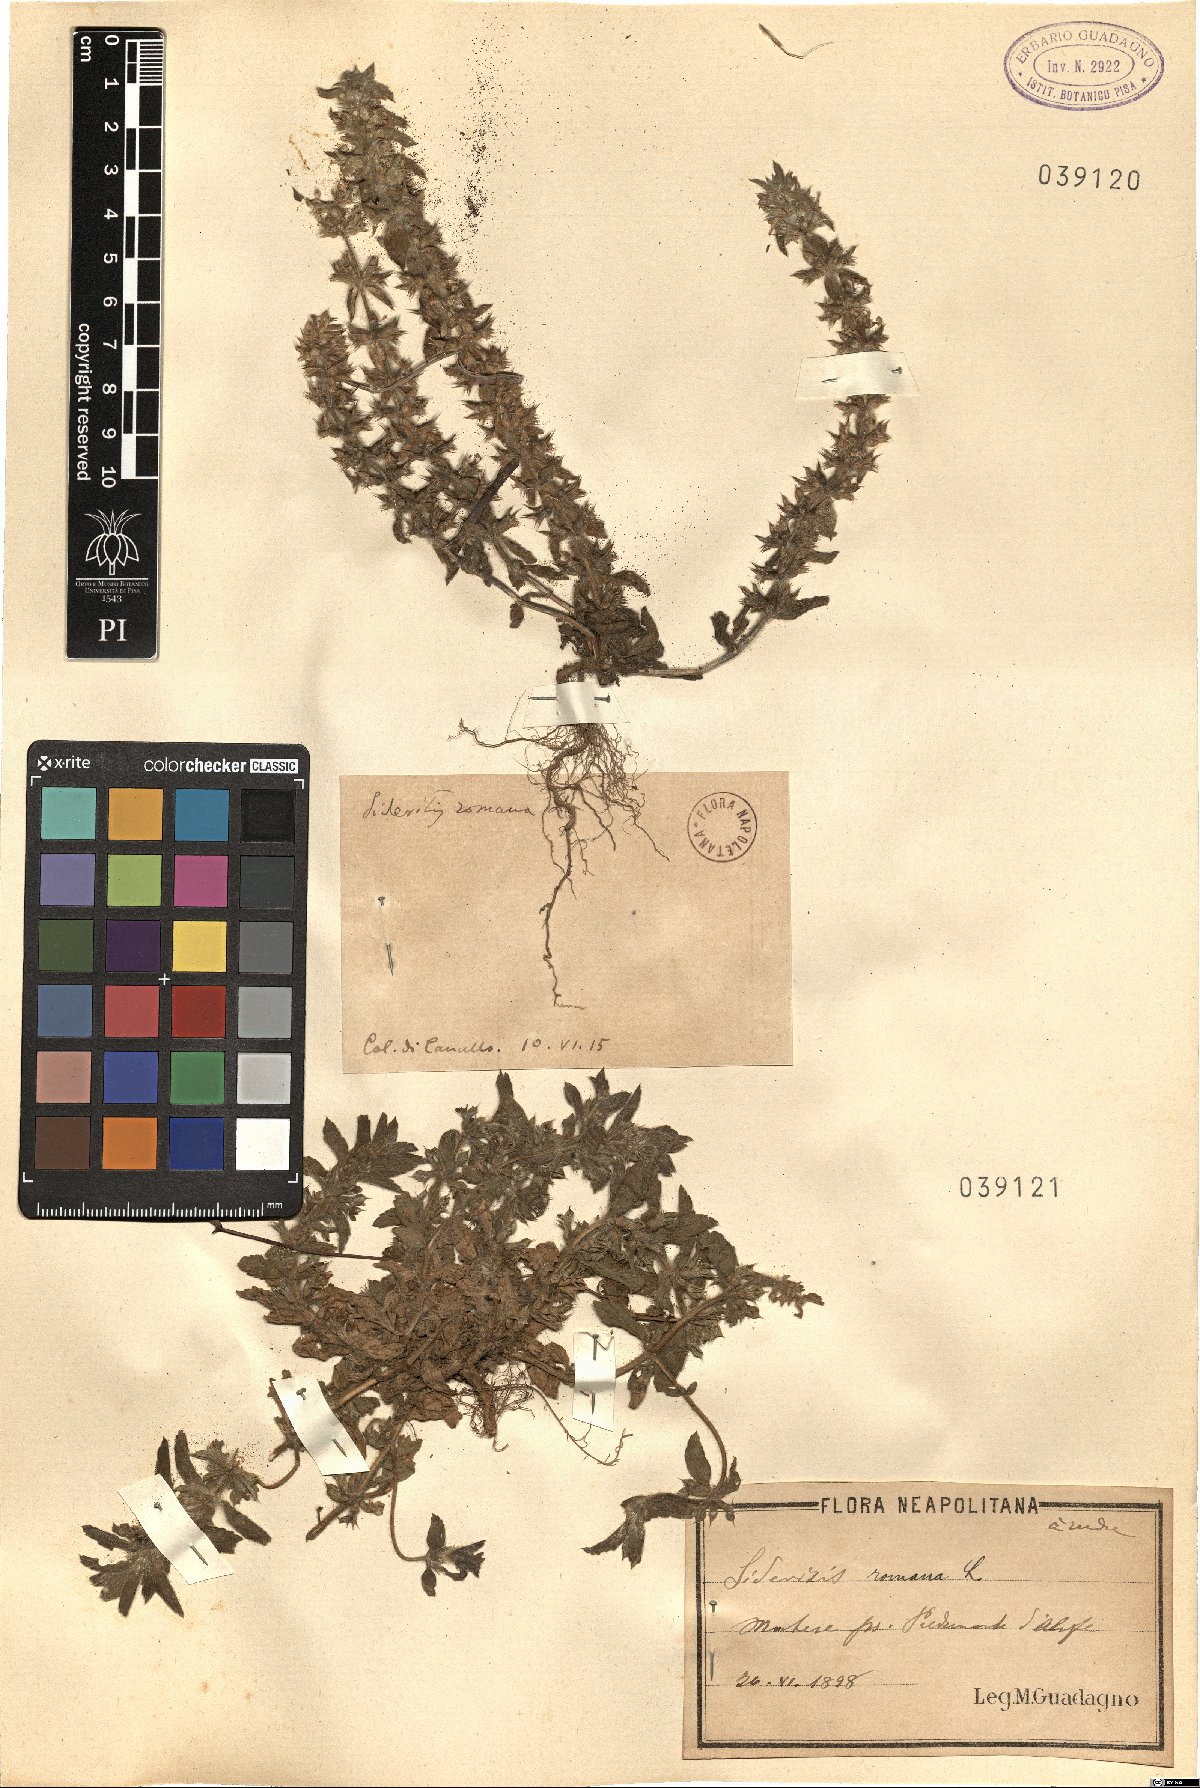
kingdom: Plantae
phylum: Tracheophyta
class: Magnoliopsida
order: Lamiales
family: Lamiaceae
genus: Sideritis
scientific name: Sideritis romana
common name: Simplebeak ironwort
